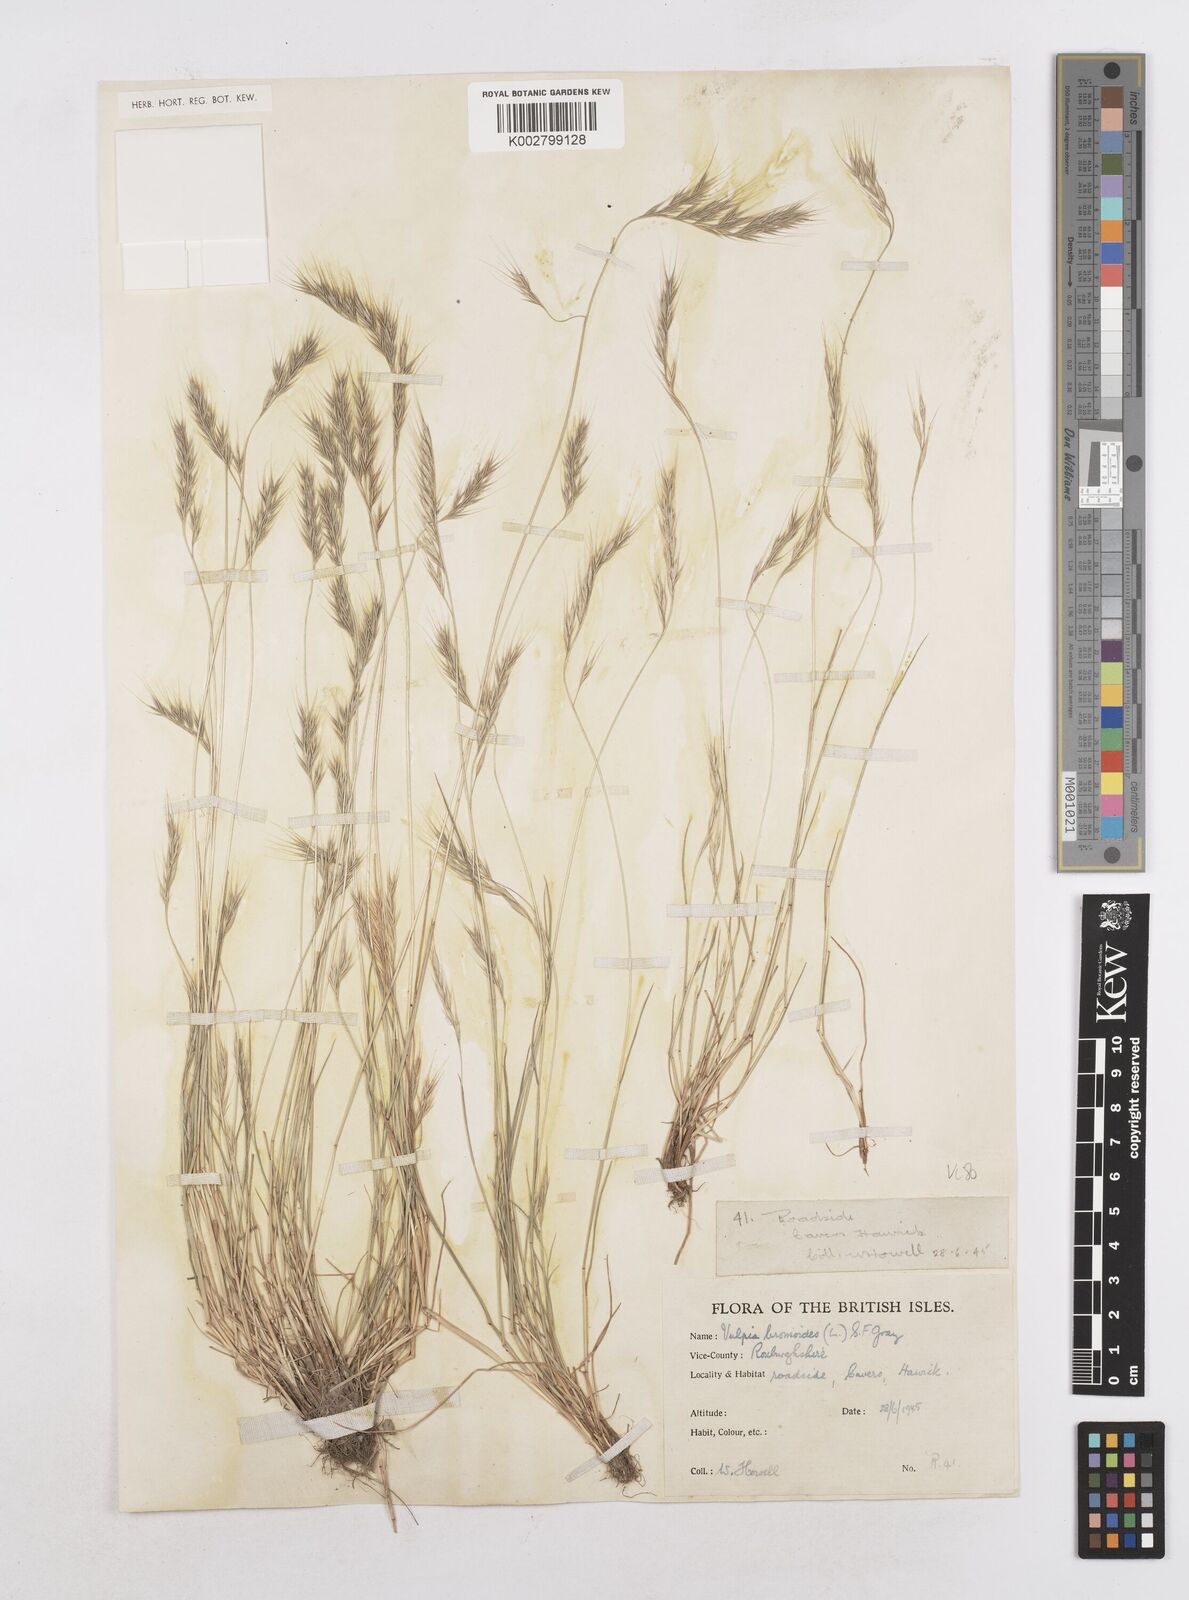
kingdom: Plantae
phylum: Tracheophyta
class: Liliopsida
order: Poales
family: Poaceae
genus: Festuca
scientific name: Festuca bromoides
